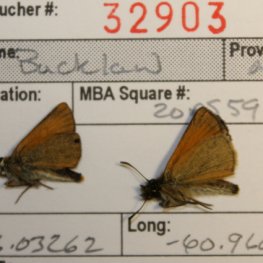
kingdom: Animalia
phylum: Arthropoda
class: Insecta
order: Lepidoptera
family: Hesperiidae
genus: Thymelicus
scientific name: Thymelicus lineola
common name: European Skipper
